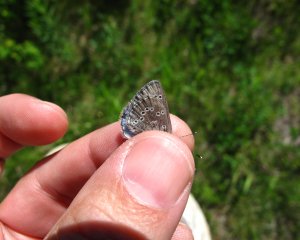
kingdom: Animalia
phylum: Arthropoda
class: Insecta
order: Lepidoptera
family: Lycaenidae
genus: Glaucopsyche
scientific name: Glaucopsyche lygdamus
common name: Silvery Blue
